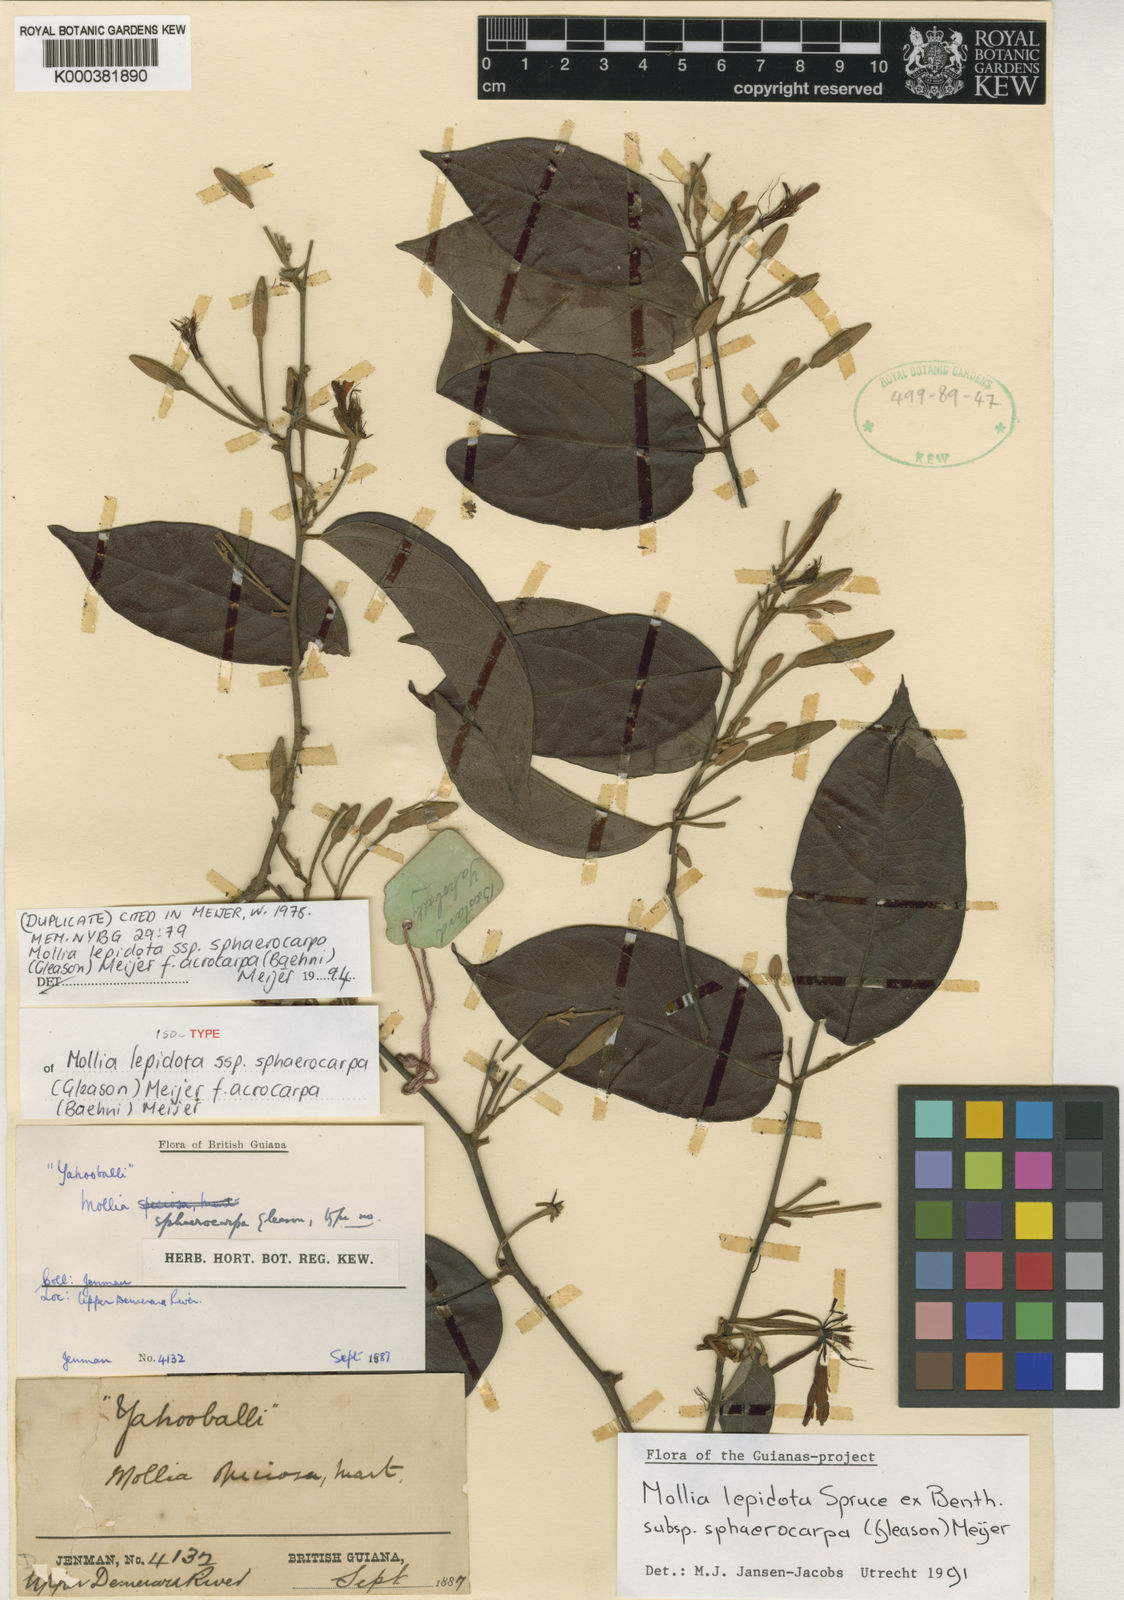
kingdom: Plantae
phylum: Tracheophyta
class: Magnoliopsida
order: Malvales
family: Malvaceae
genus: Mollia
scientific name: Mollia lepidota
